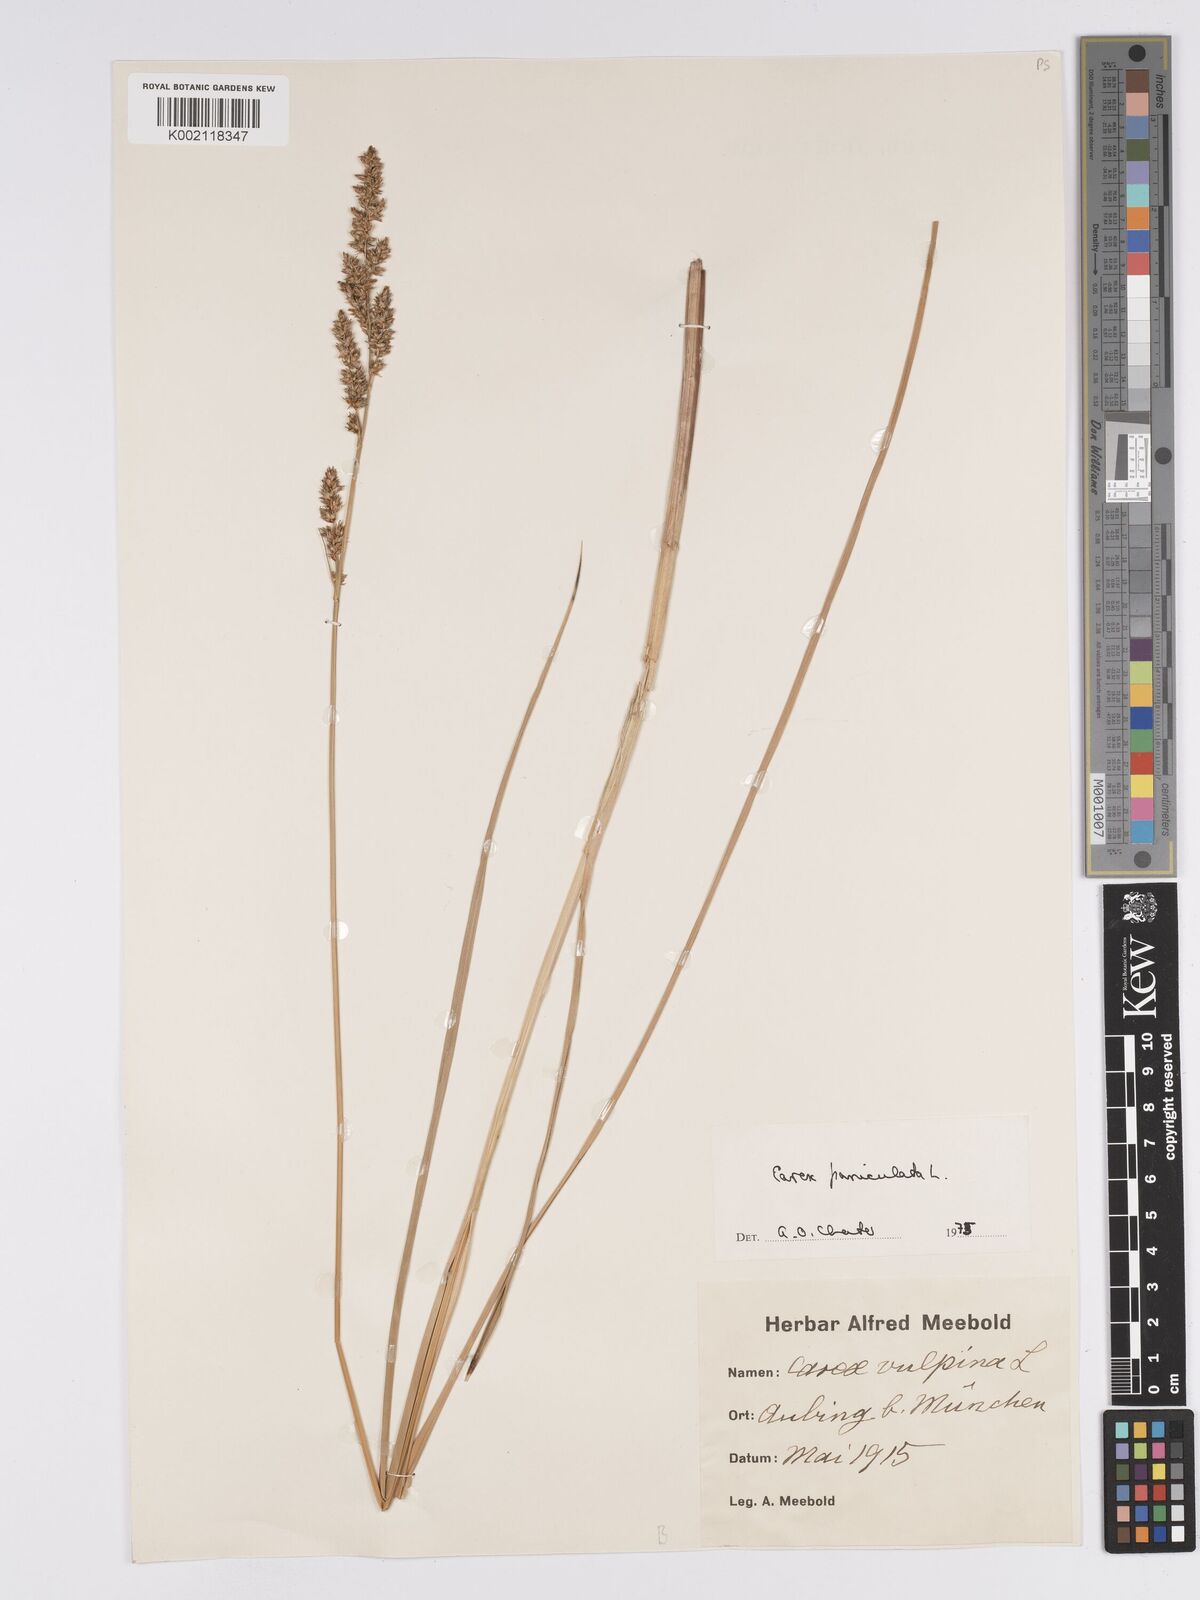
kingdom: Plantae
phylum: Tracheophyta
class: Liliopsida
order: Poales
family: Cyperaceae
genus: Carex
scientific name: Carex paniculata
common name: Greater tussock-sedge
